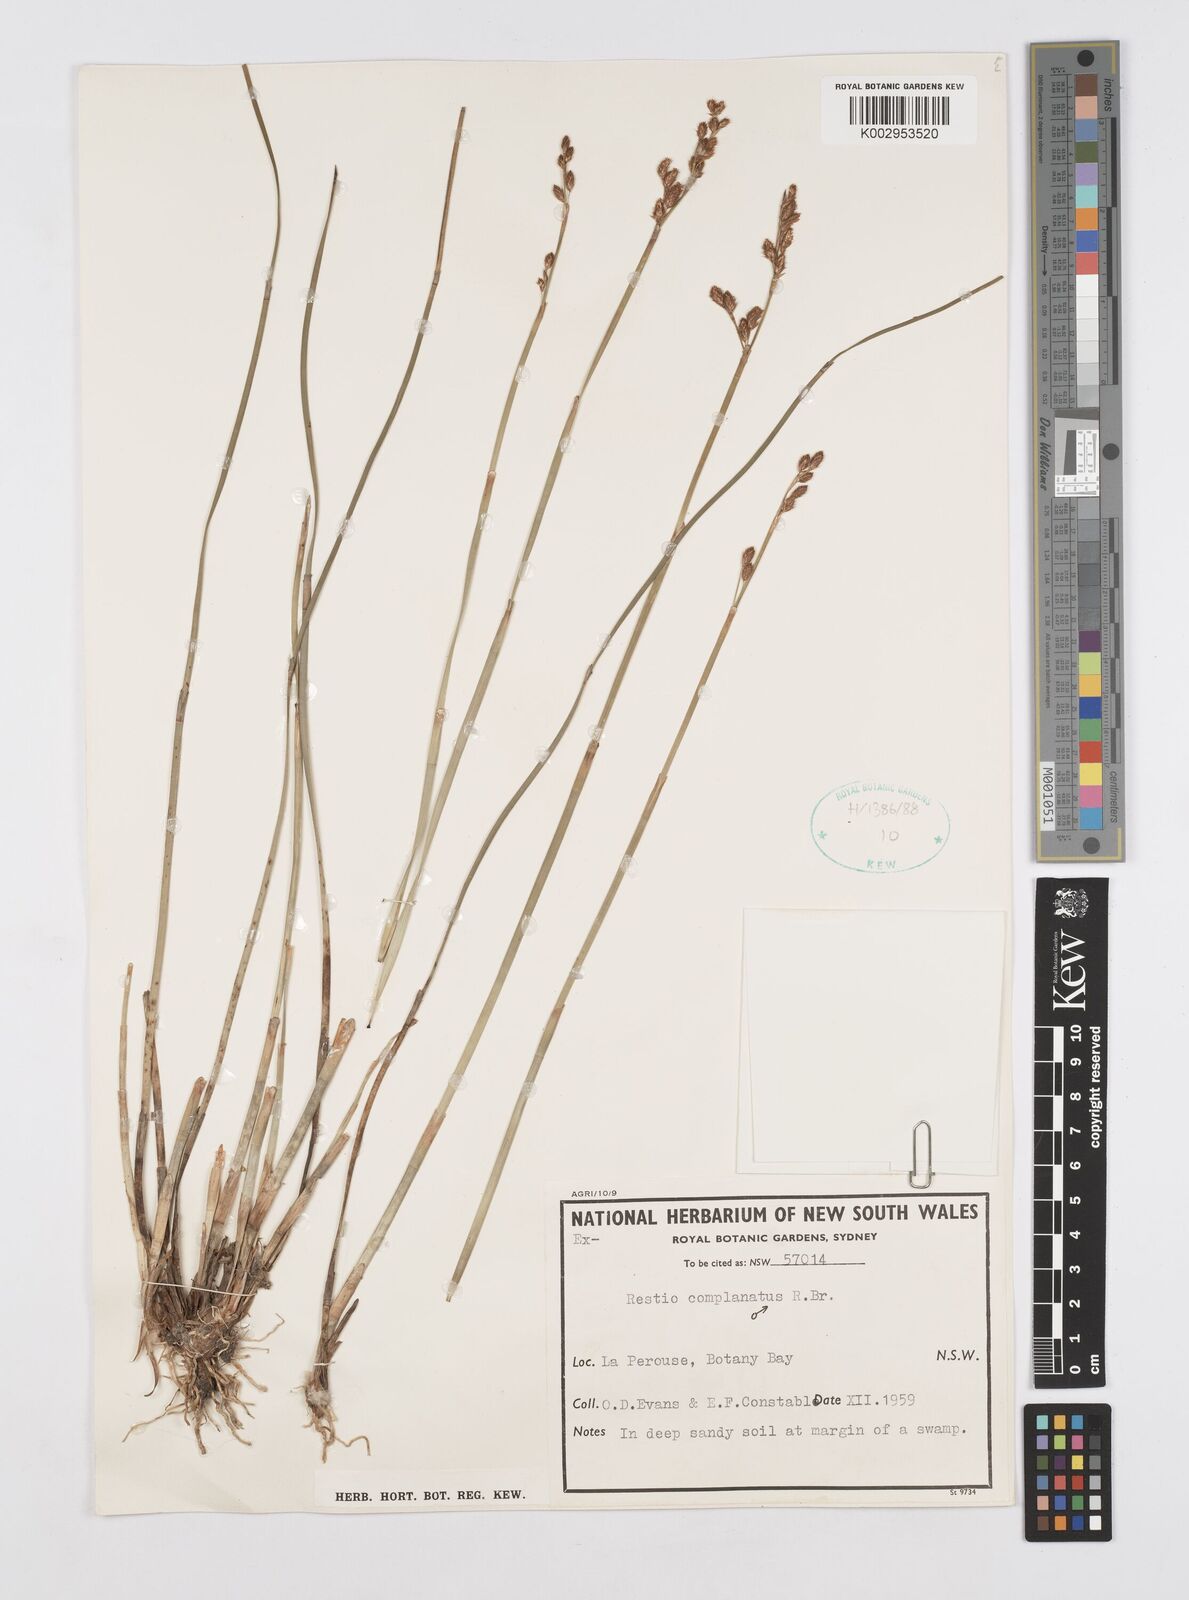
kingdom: Plantae
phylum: Tracheophyta
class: Liliopsida
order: Poales
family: Restionaceae
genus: Eurychorda
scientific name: Eurychorda complanata
